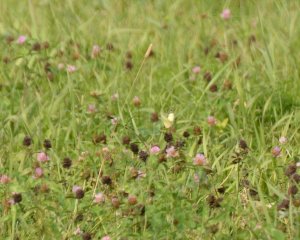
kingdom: Animalia
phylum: Arthropoda
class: Insecta
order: Lepidoptera
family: Pieridae
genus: Colias
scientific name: Colias philodice
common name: Clouded Sulphur
